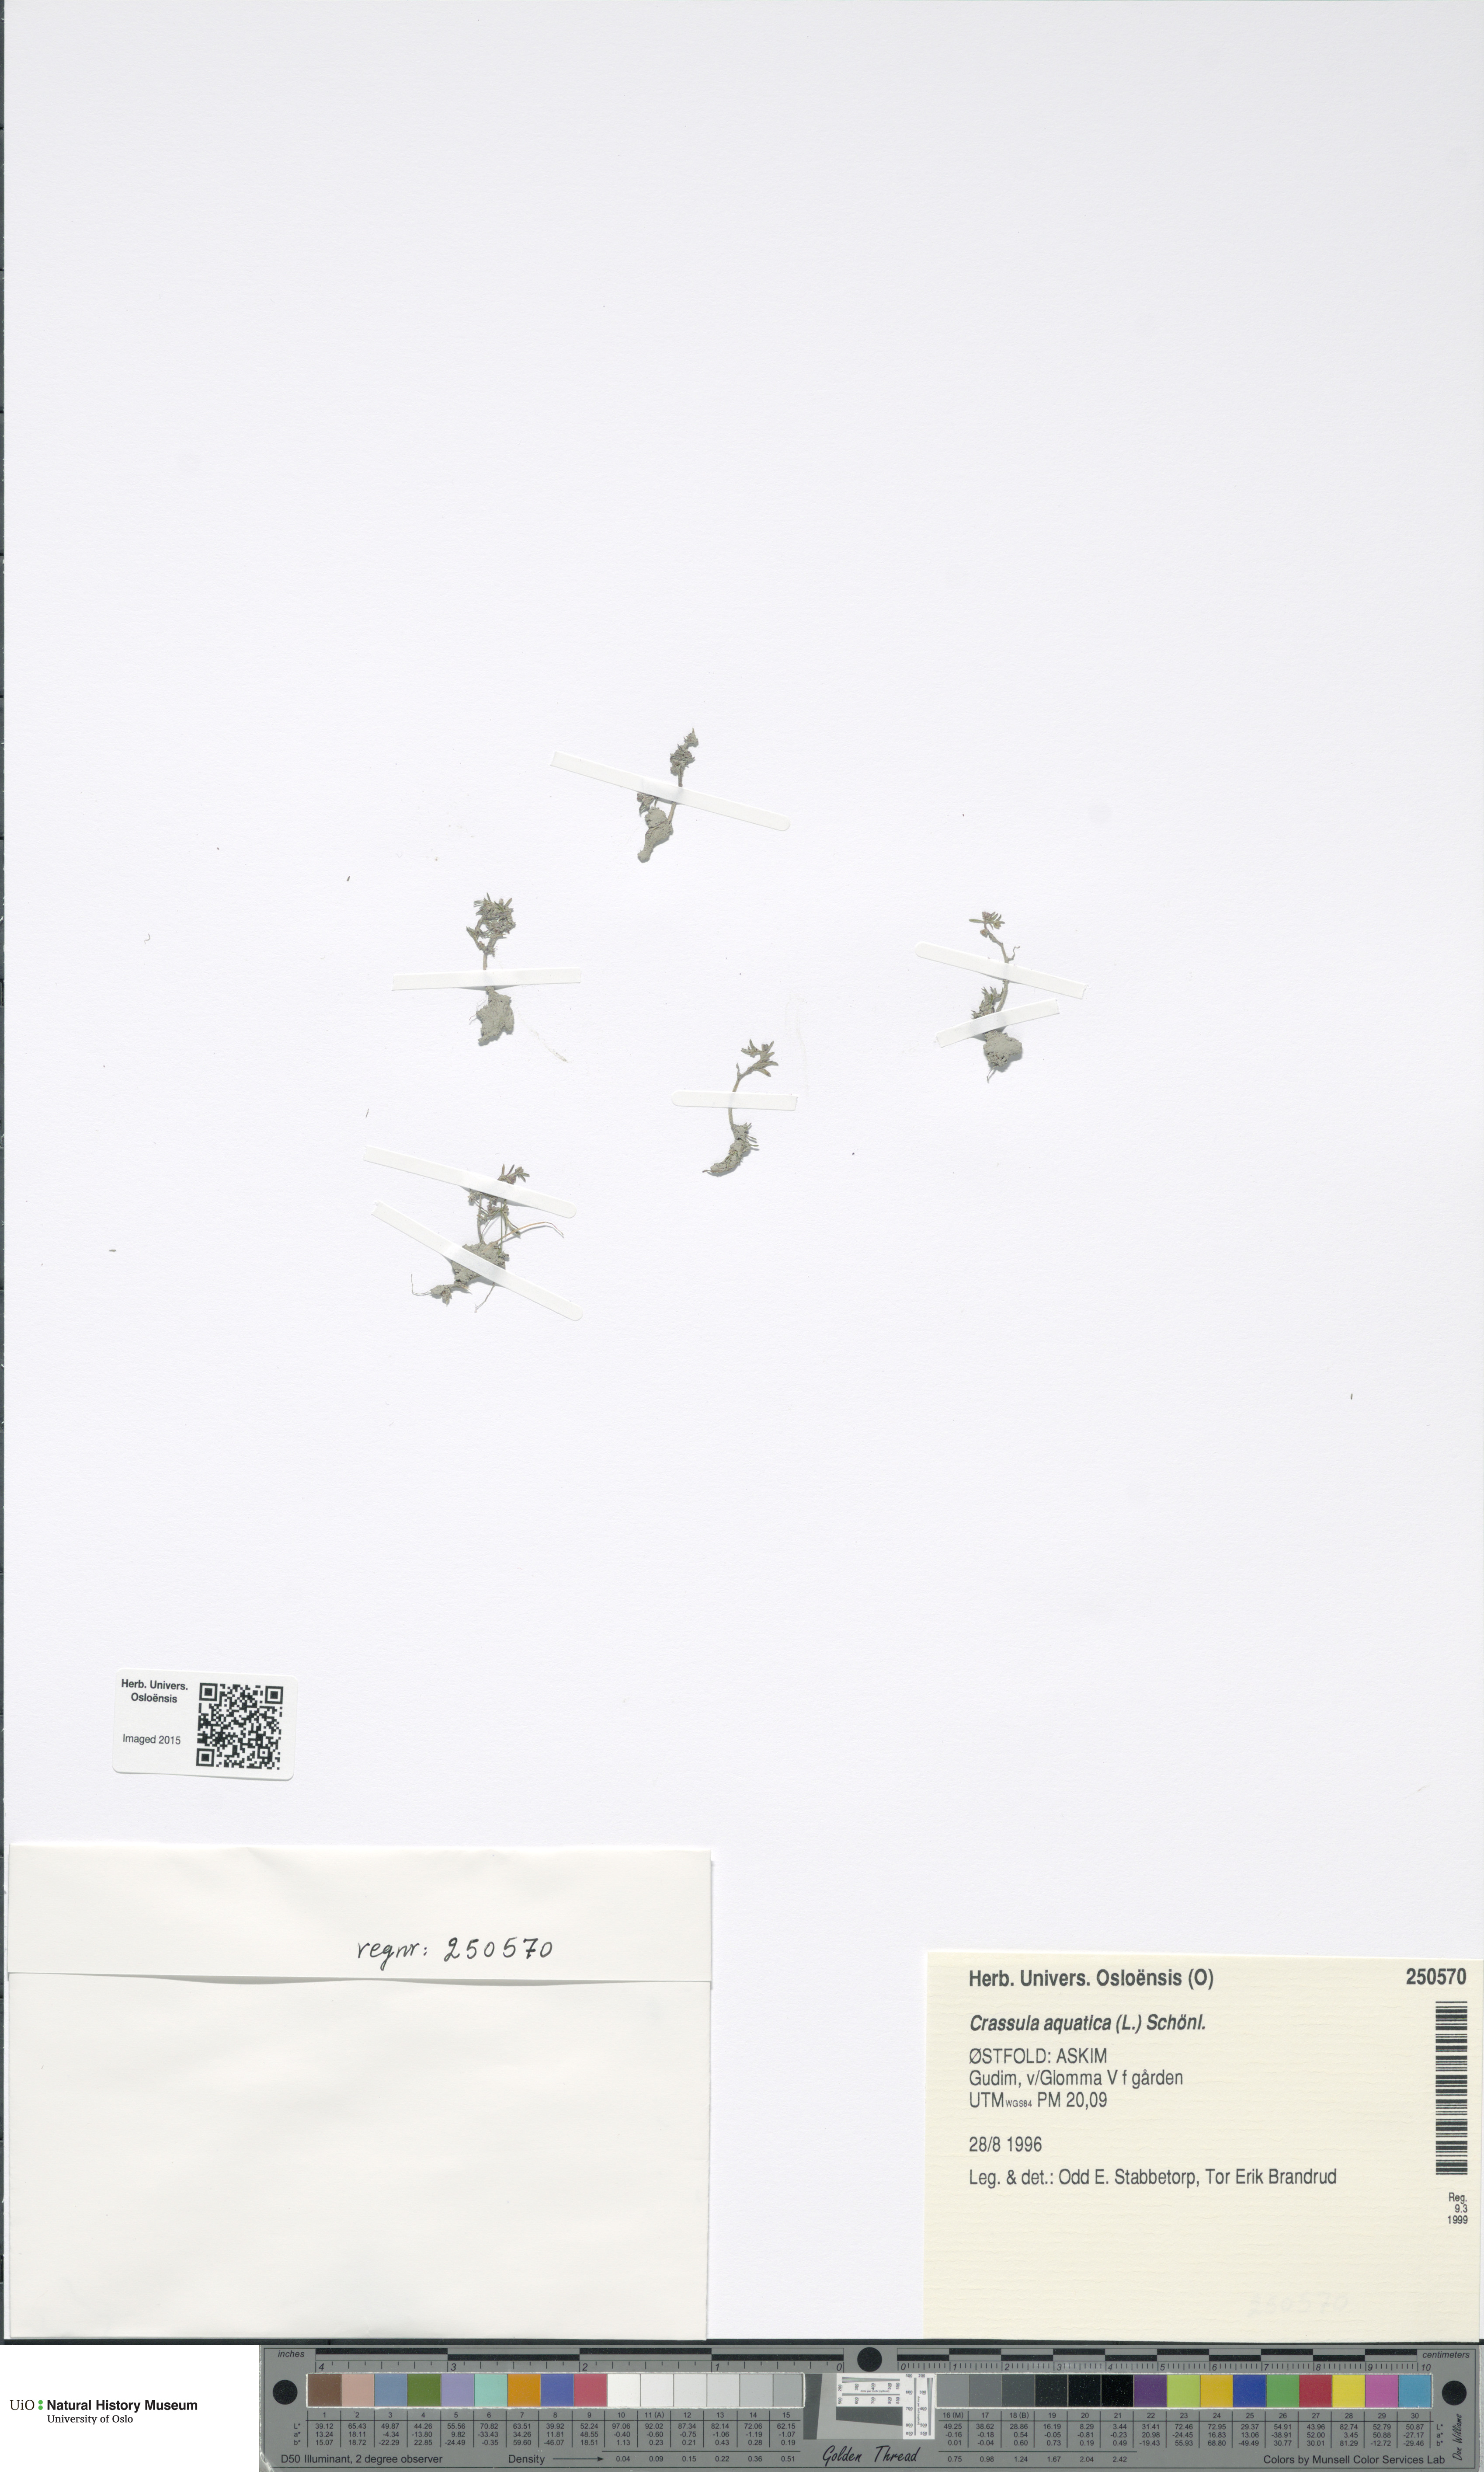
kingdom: Plantae
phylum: Tracheophyta
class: Magnoliopsida
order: Saxifragales
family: Crassulaceae
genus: Crassula
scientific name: Crassula aquatica
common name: Pigmyweed
